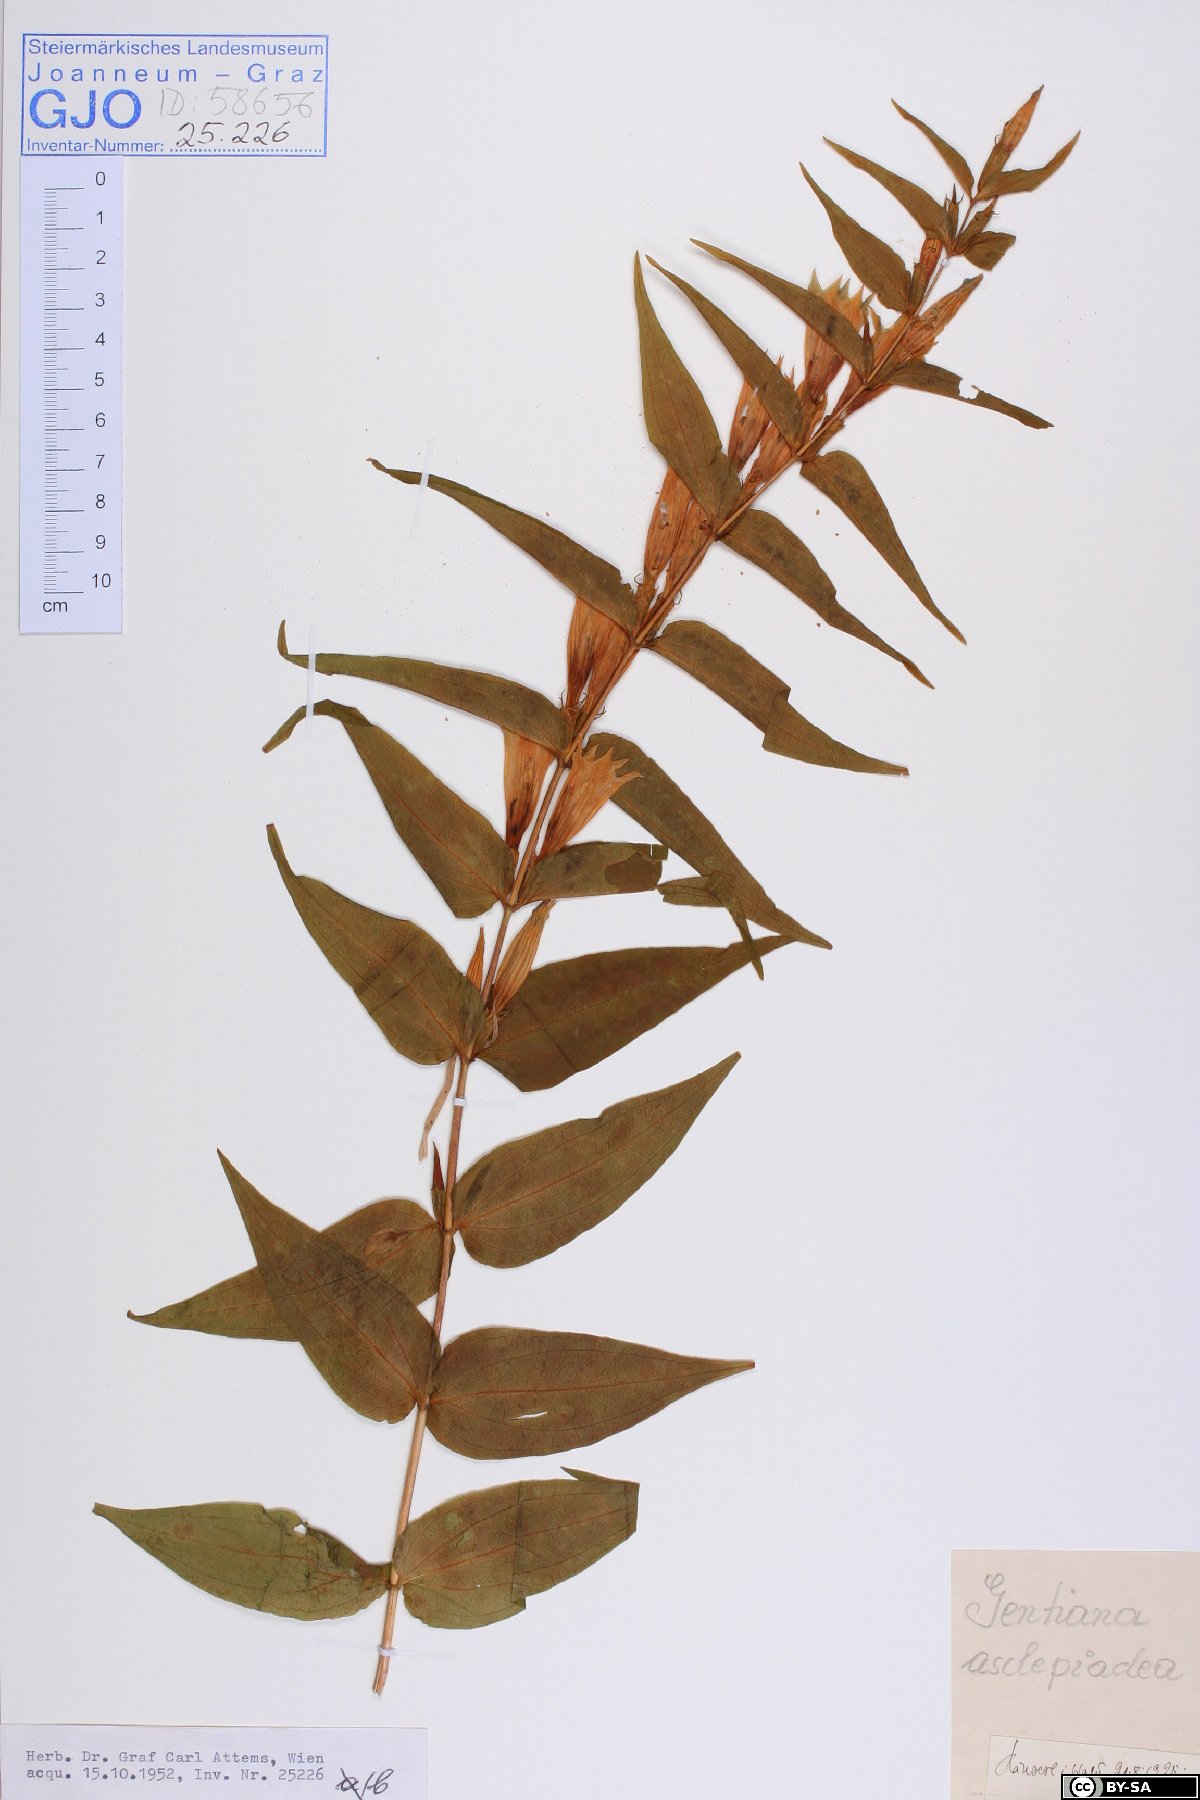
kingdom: Plantae
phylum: Tracheophyta
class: Magnoliopsida
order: Gentianales
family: Gentianaceae
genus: Gentiana
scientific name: Gentiana asclepiadea
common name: Willow gentian
